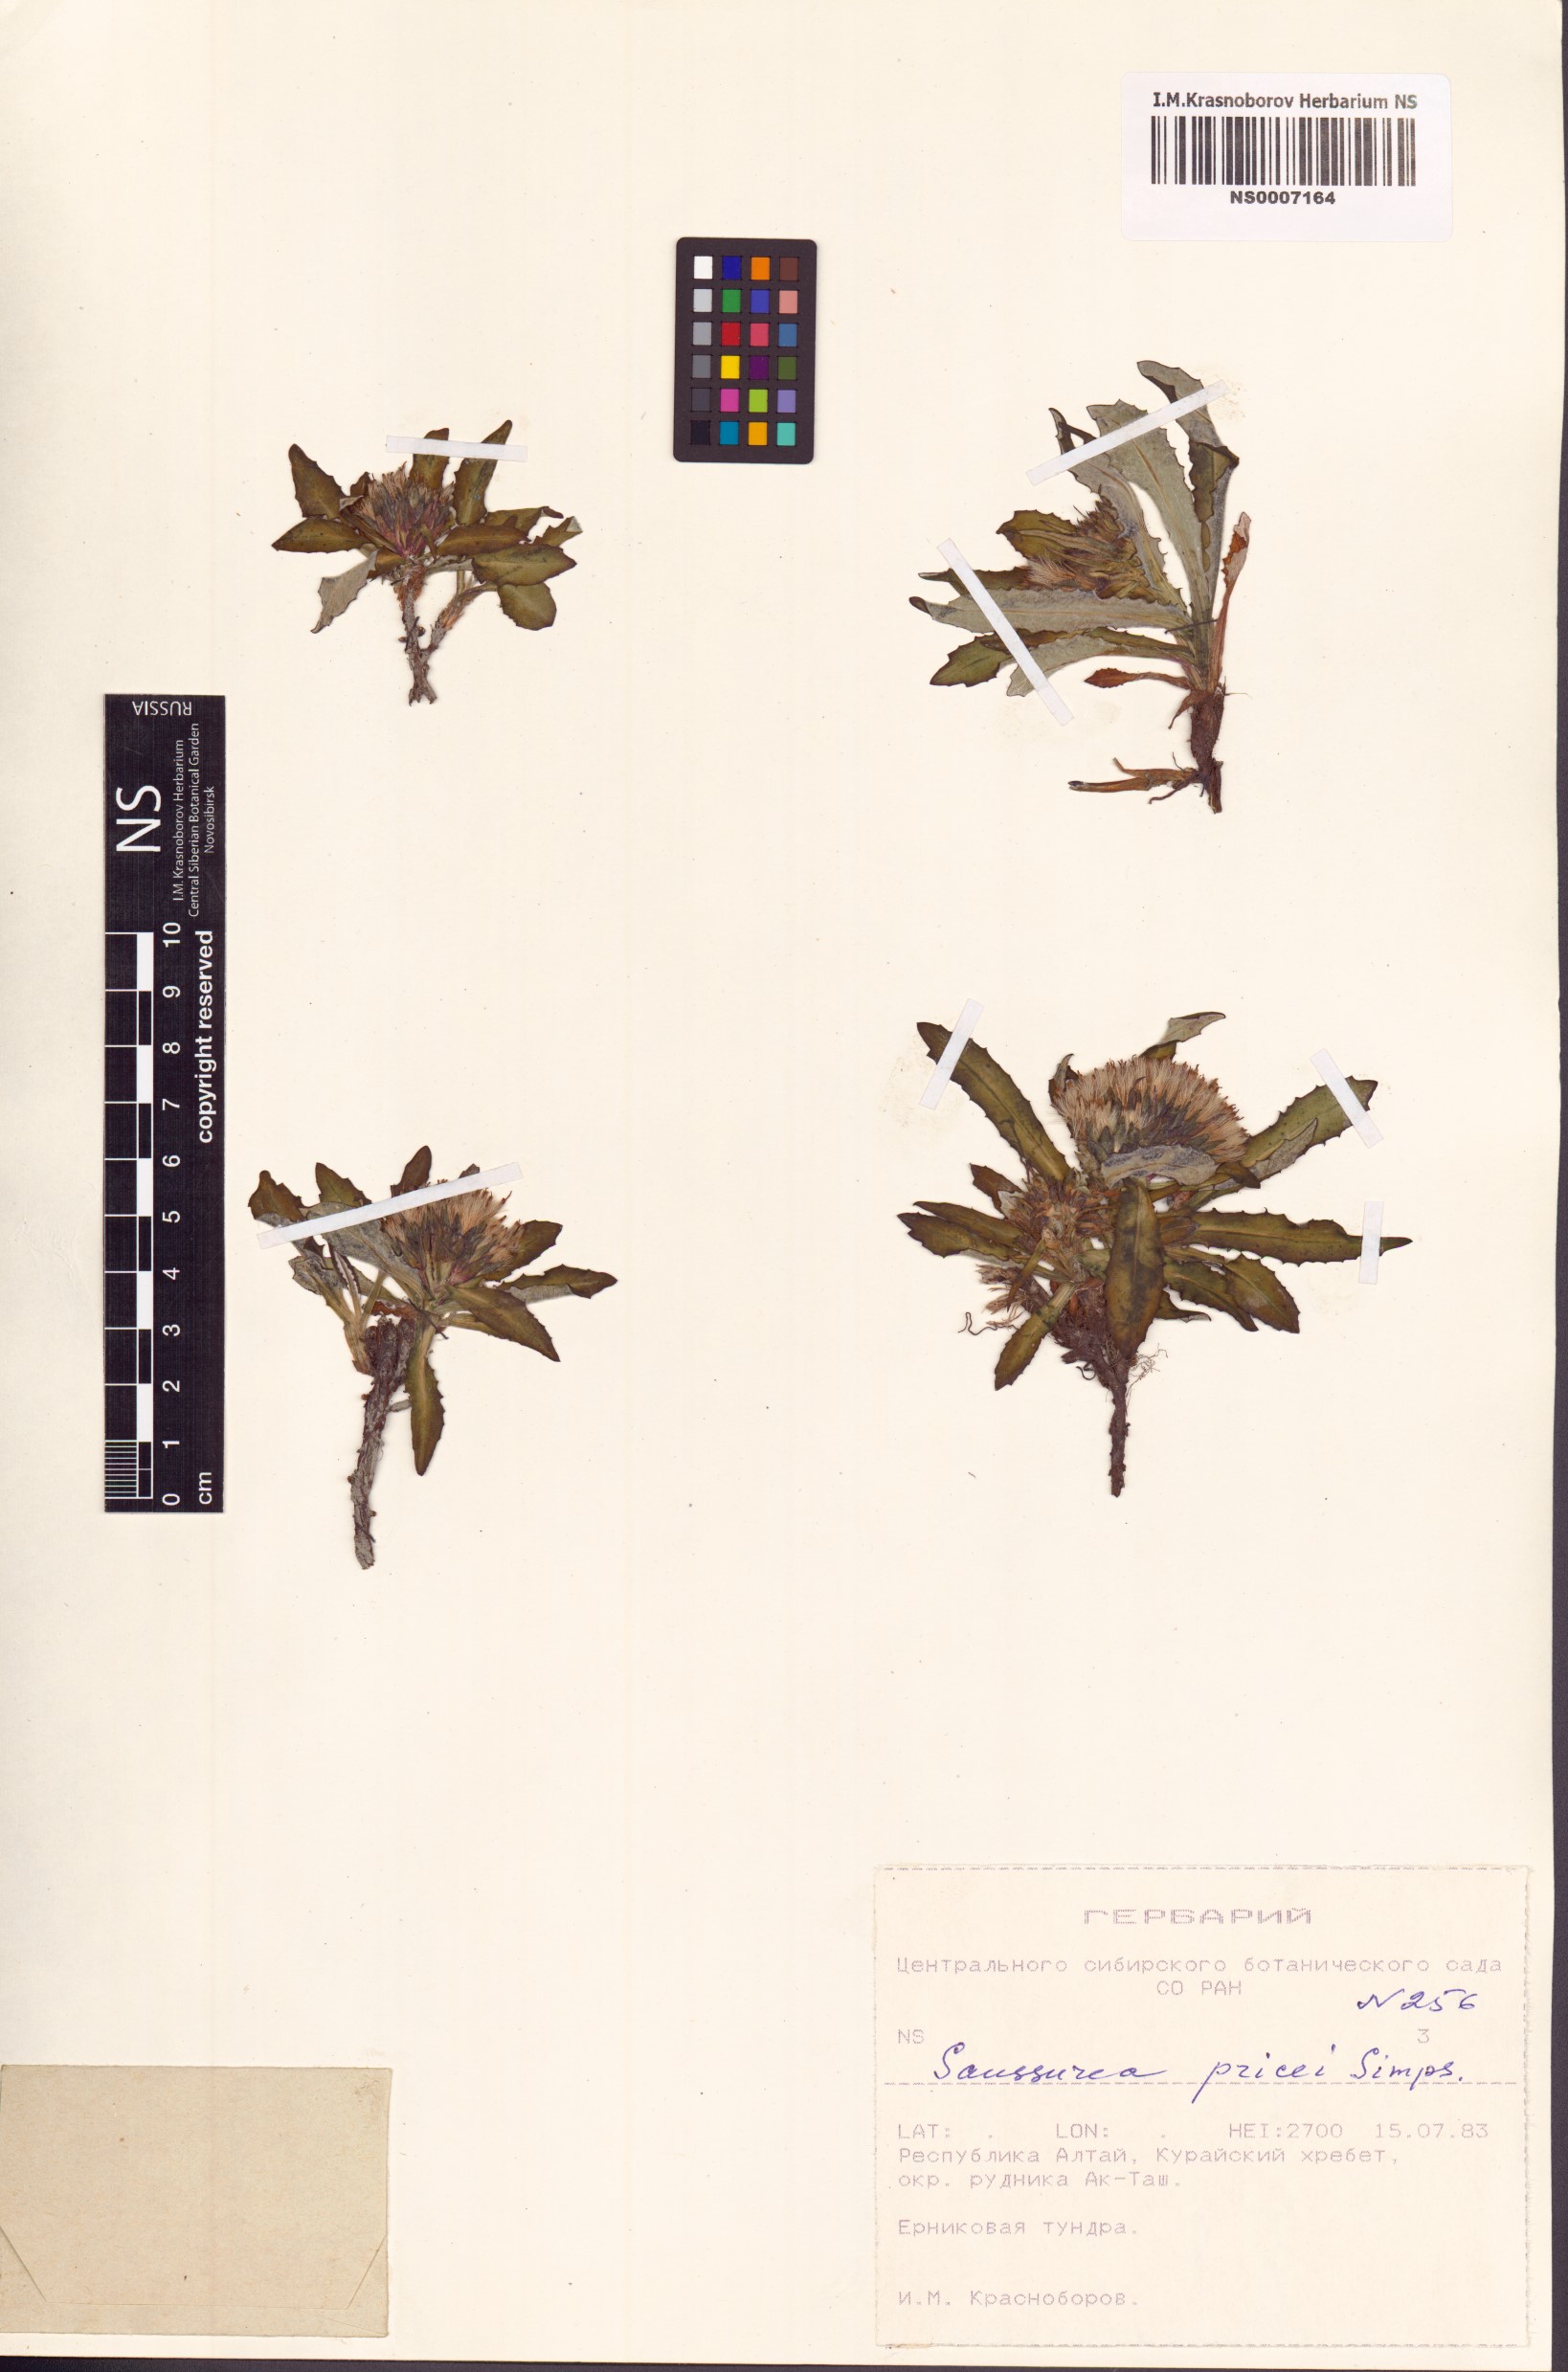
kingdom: Plantae
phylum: Tracheophyta
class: Magnoliopsida
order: Asterales
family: Asteraceae
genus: Saussurea
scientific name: Saussurea pricei
